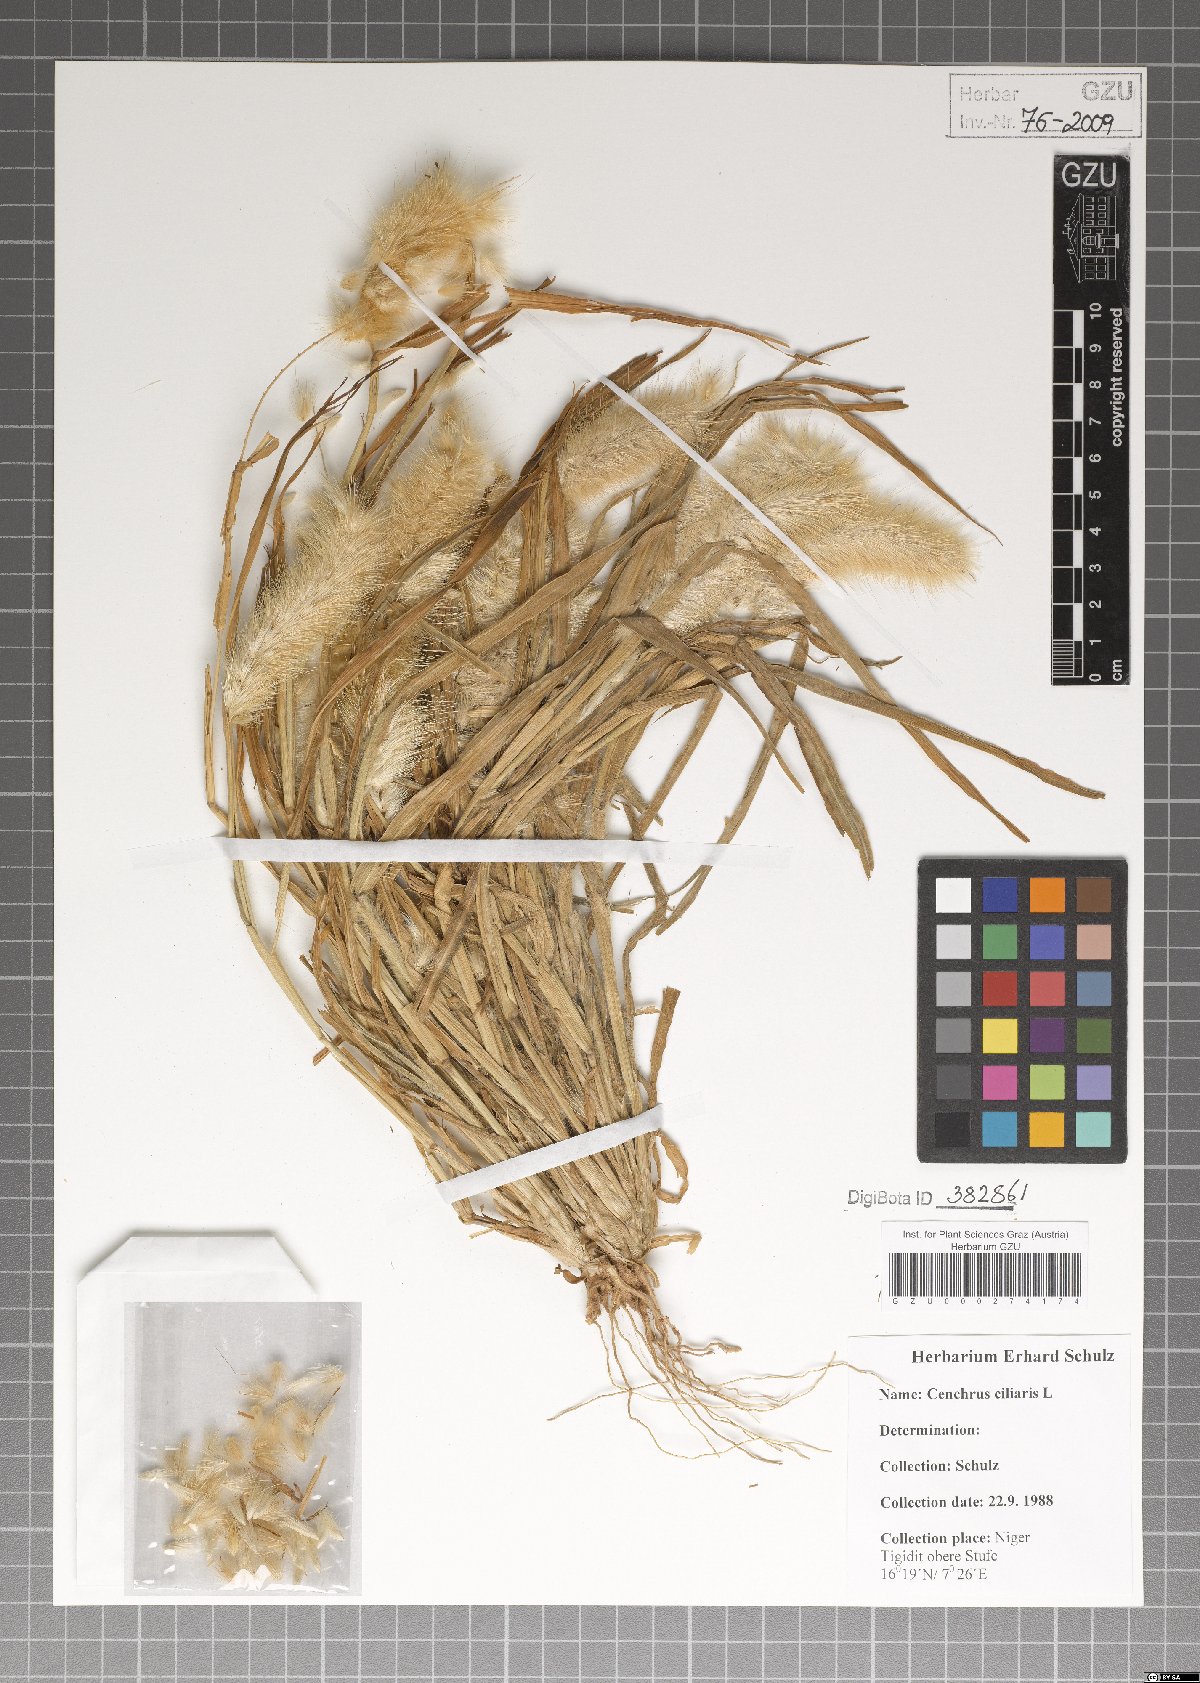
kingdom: Plantae
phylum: Tracheophyta
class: Liliopsida
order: Poales
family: Poaceae
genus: Cenchrus
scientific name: Cenchrus ciliaris
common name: Buffelgrass
